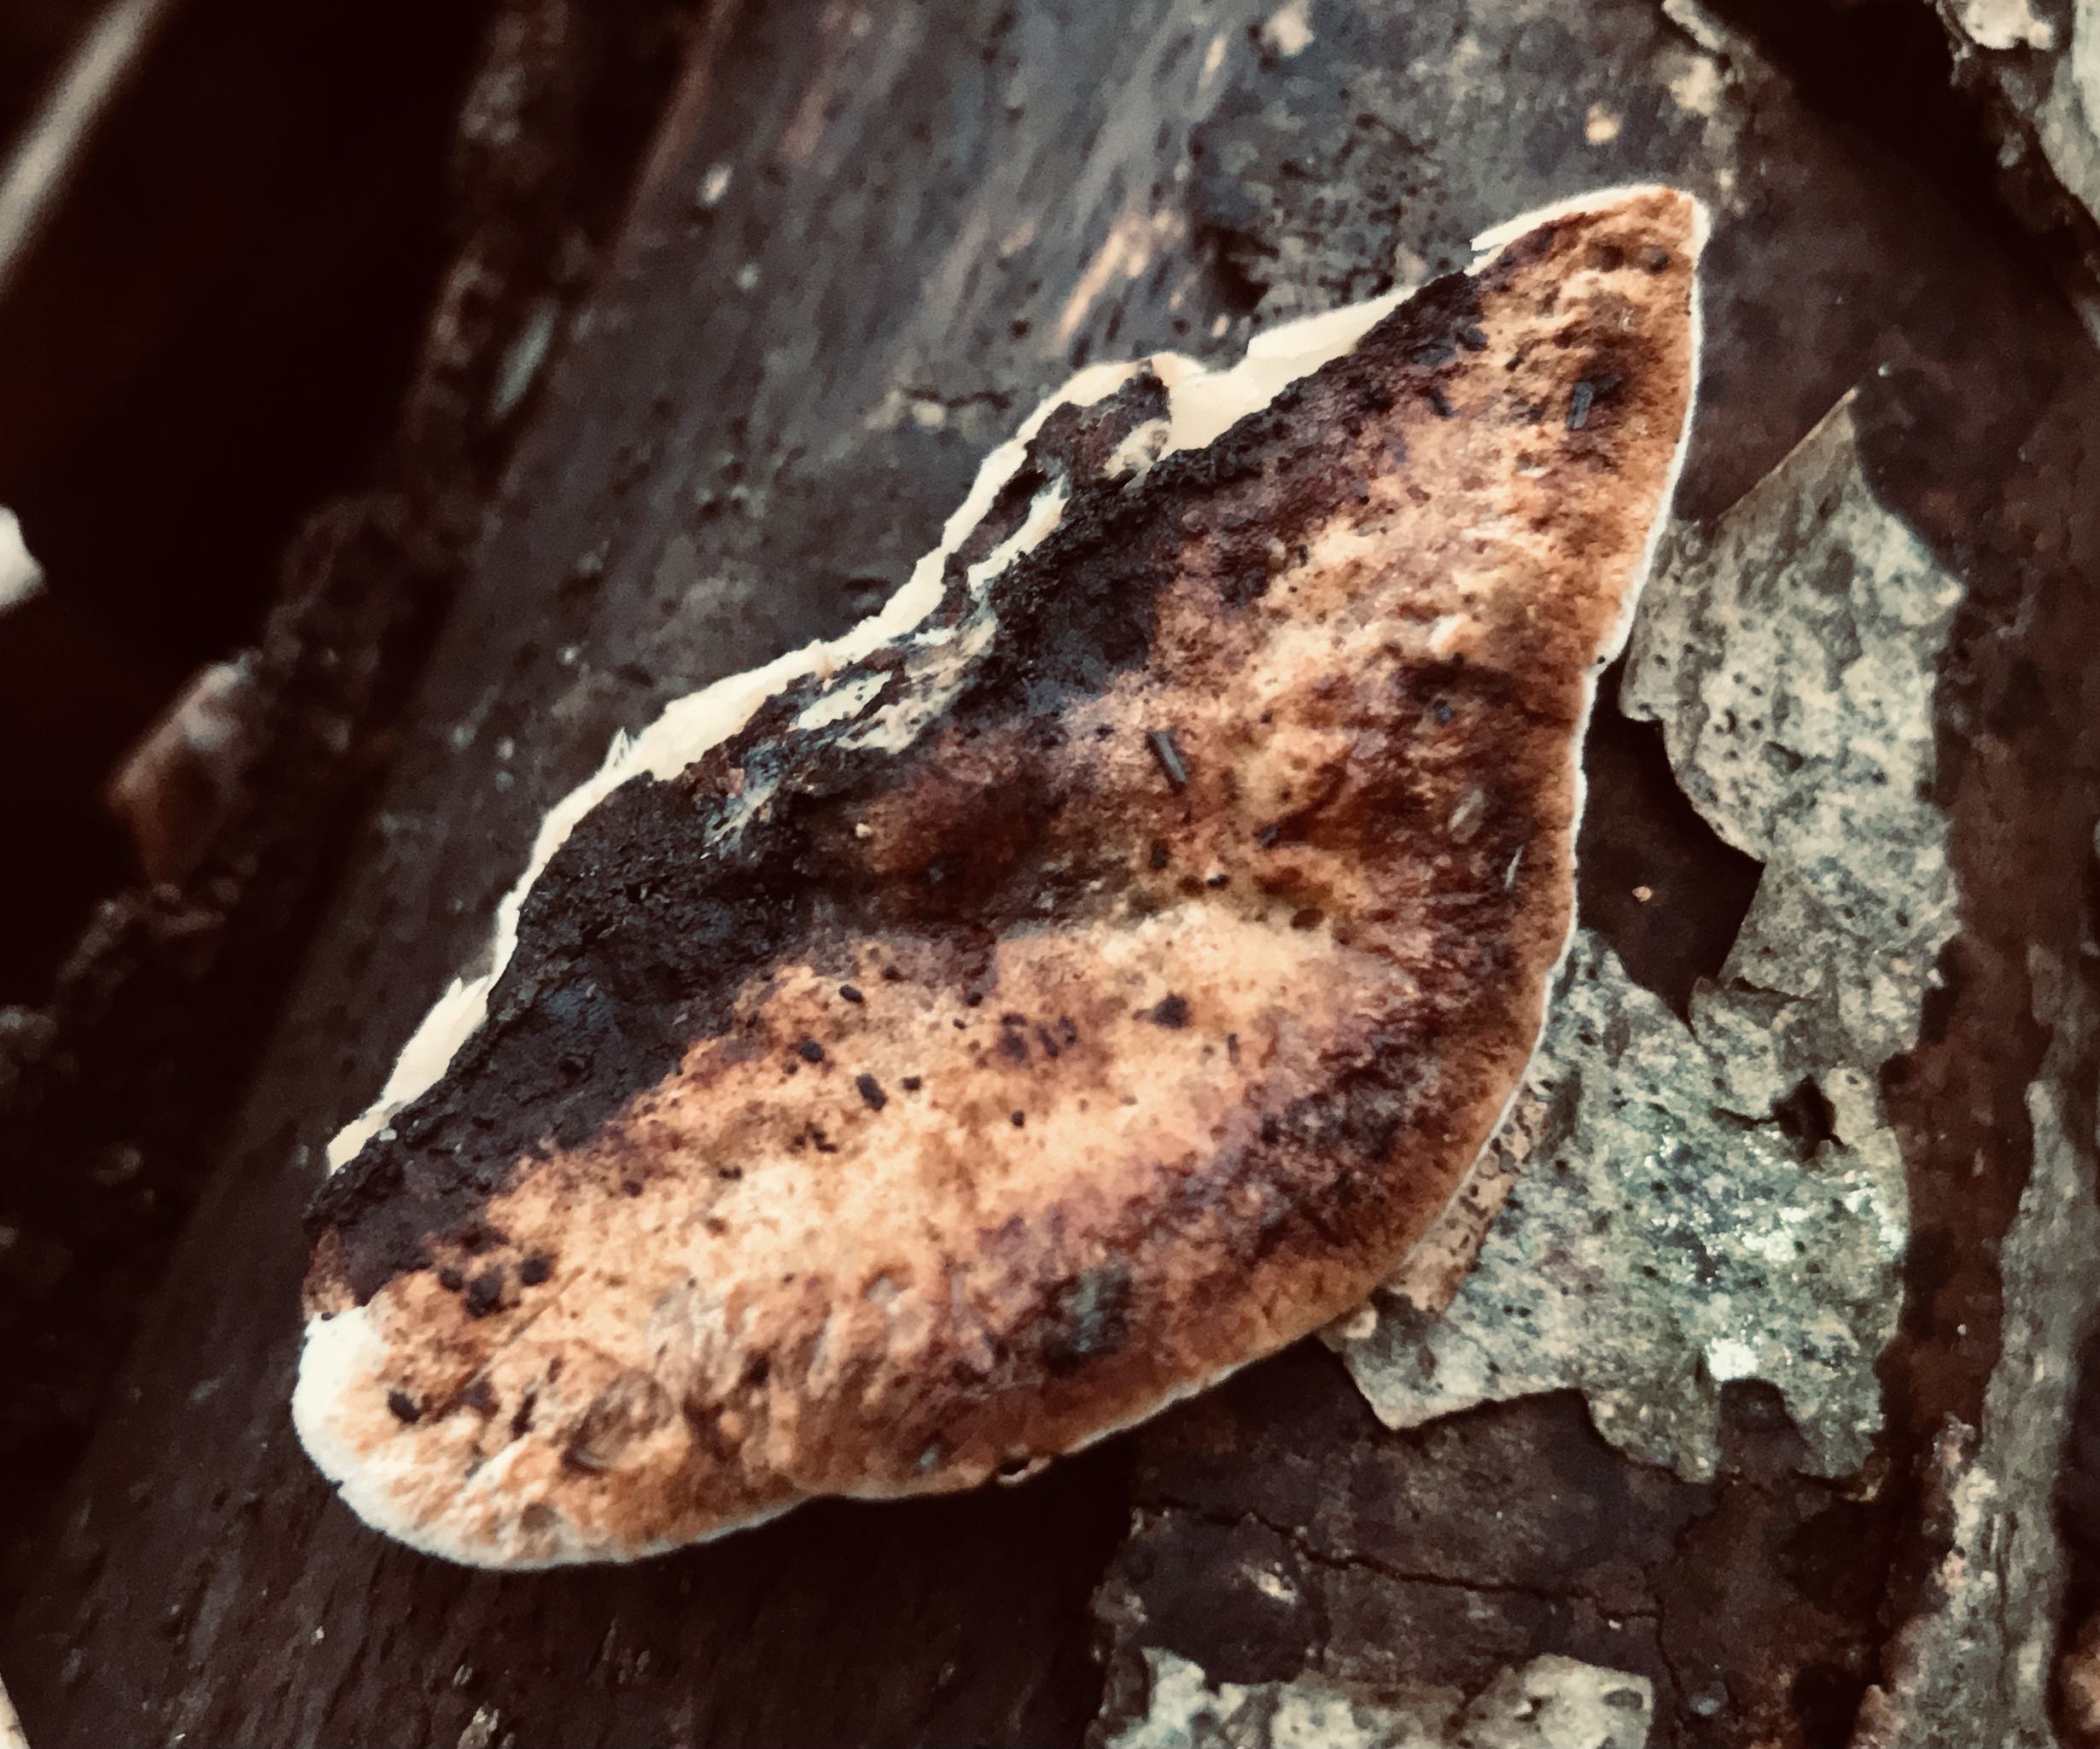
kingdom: Fungi
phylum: Basidiomycota
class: Agaricomycetes
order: Polyporales
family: Polyporaceae
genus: Cyanosporus
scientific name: Cyanosporus caesius
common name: blålig kødporesvamp
